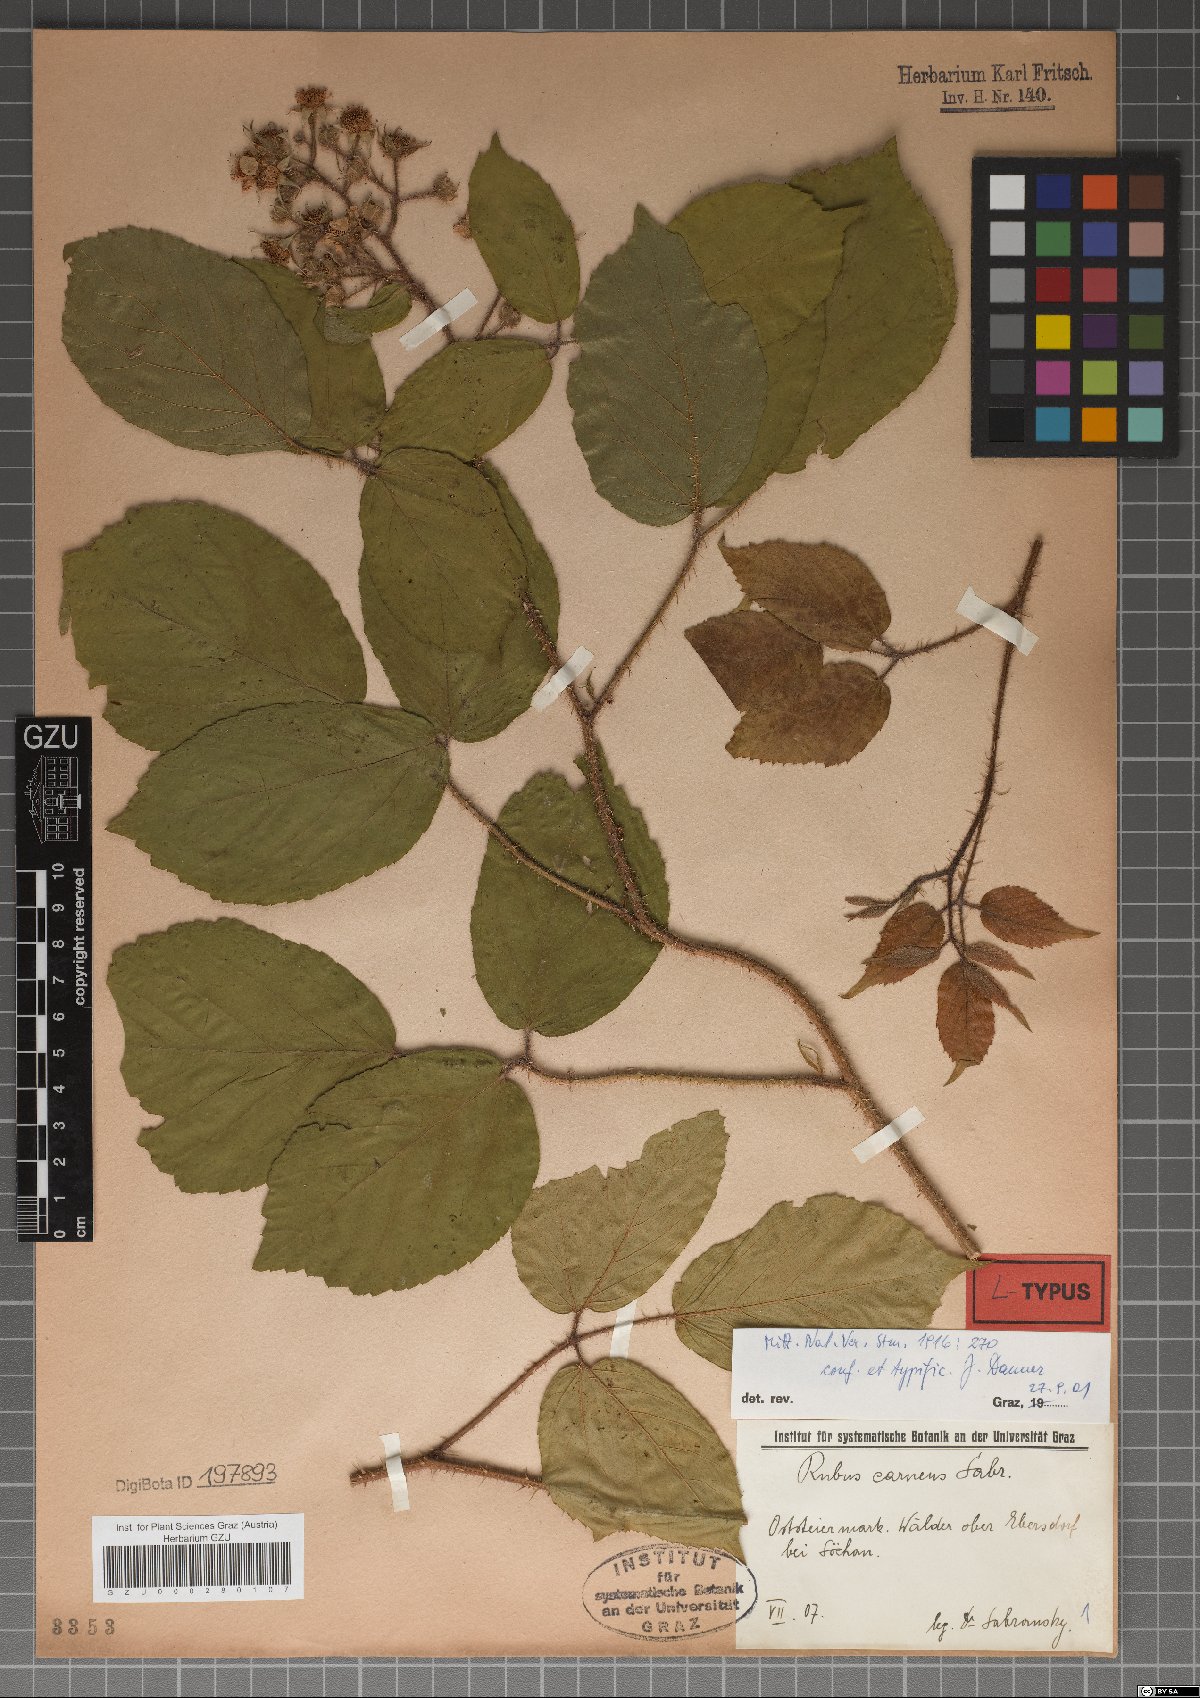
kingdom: Plantae
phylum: Tracheophyta
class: Magnoliopsida
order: Rosales
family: Rosaceae
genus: Rubus
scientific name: Rubus carneus
